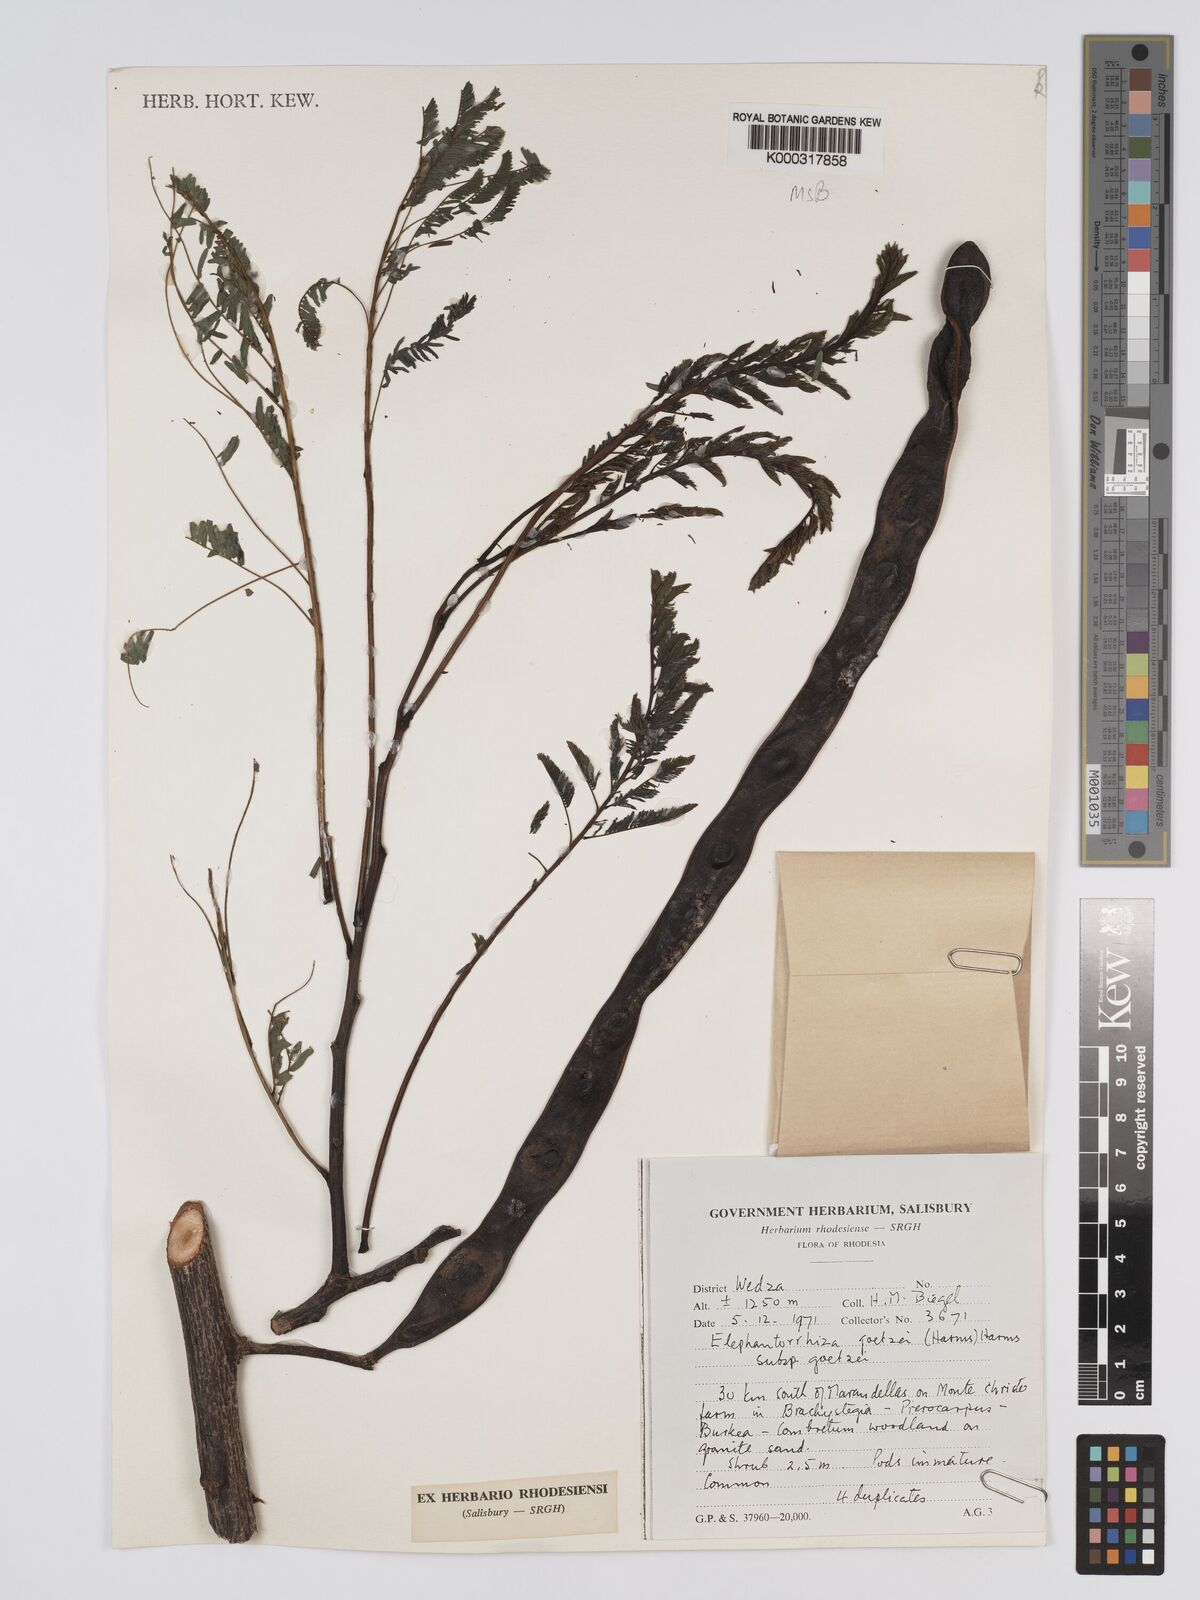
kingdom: Plantae
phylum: Tracheophyta
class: Magnoliopsida
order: Fabales
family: Fabaceae
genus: Elephantorrhiza
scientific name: Elephantorrhiza goetzei
